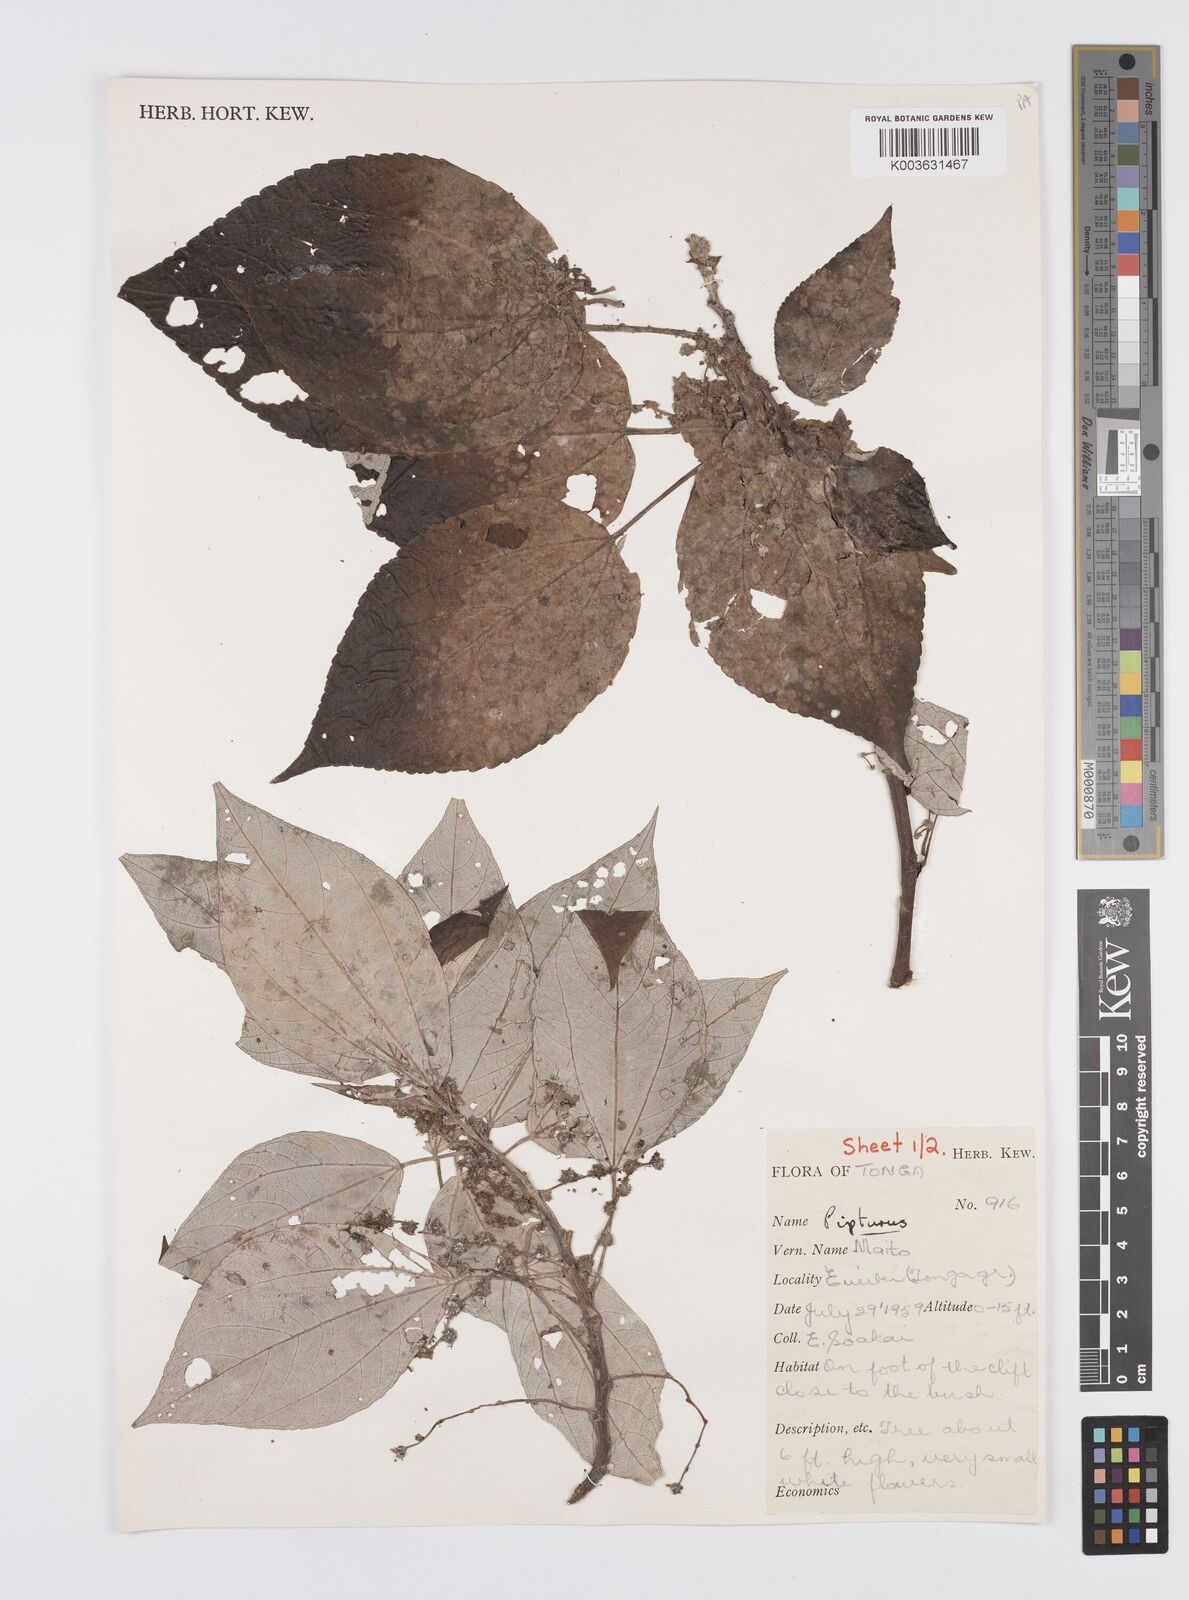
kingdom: Plantae
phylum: Tracheophyta
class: Magnoliopsida
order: Rosales
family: Urticaceae
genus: Pipturus
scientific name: Pipturus argenteus
